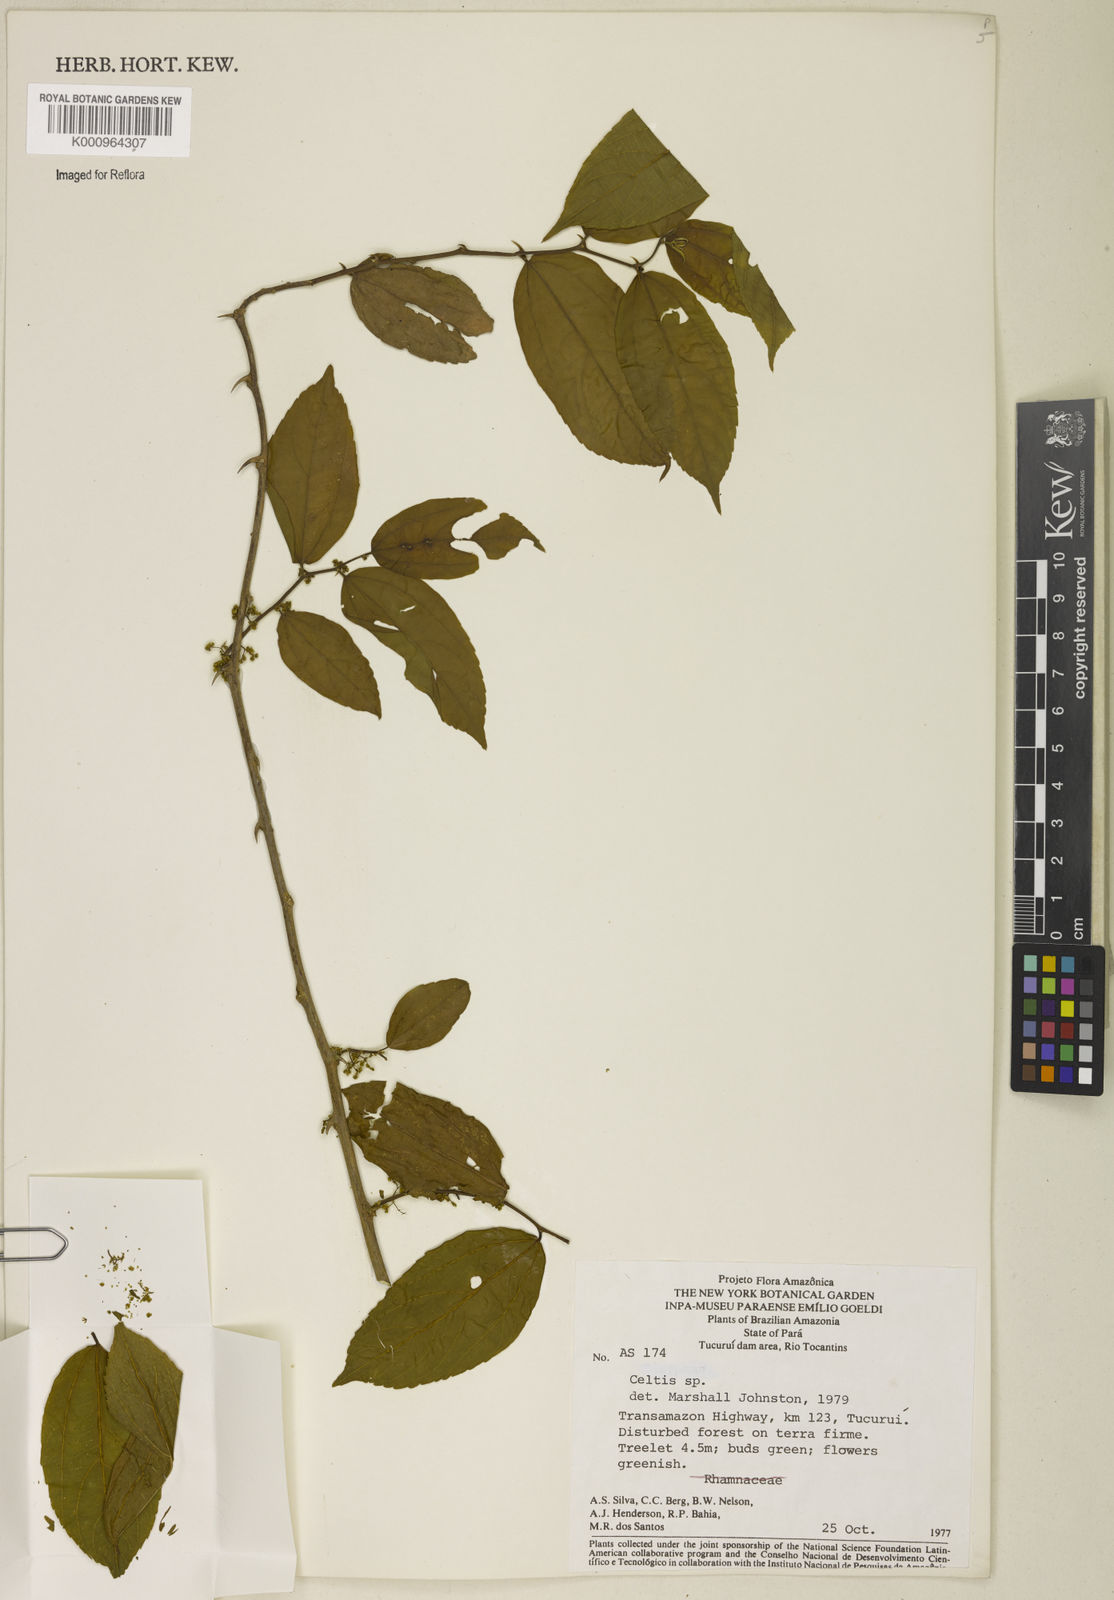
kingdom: Plantae
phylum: Tracheophyta
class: Magnoliopsida
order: Rosales
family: Cannabaceae
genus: Celtis
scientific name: Celtis
